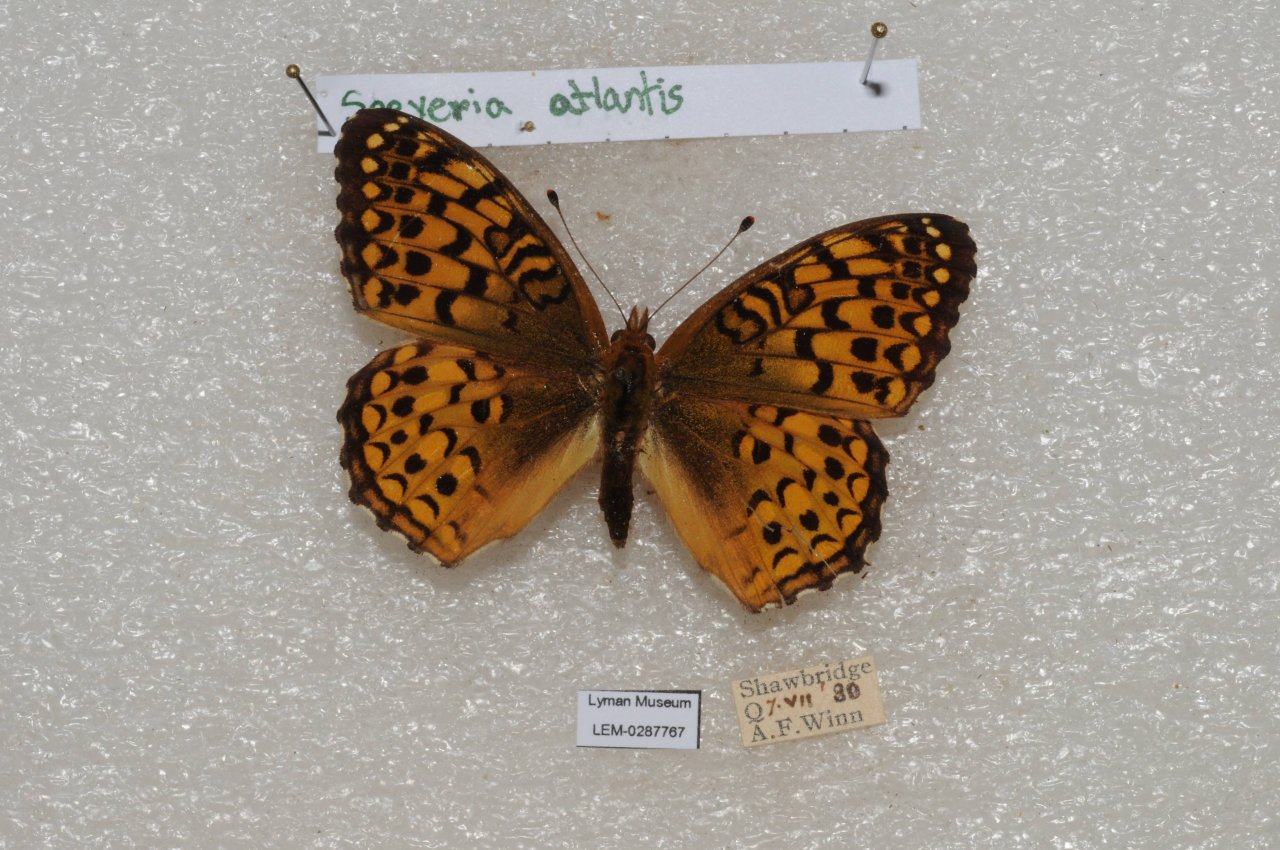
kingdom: Animalia
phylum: Arthropoda
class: Insecta
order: Lepidoptera
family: Nymphalidae
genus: Speyeria
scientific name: Speyeria atlantis
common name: Atlantis Fritillary
